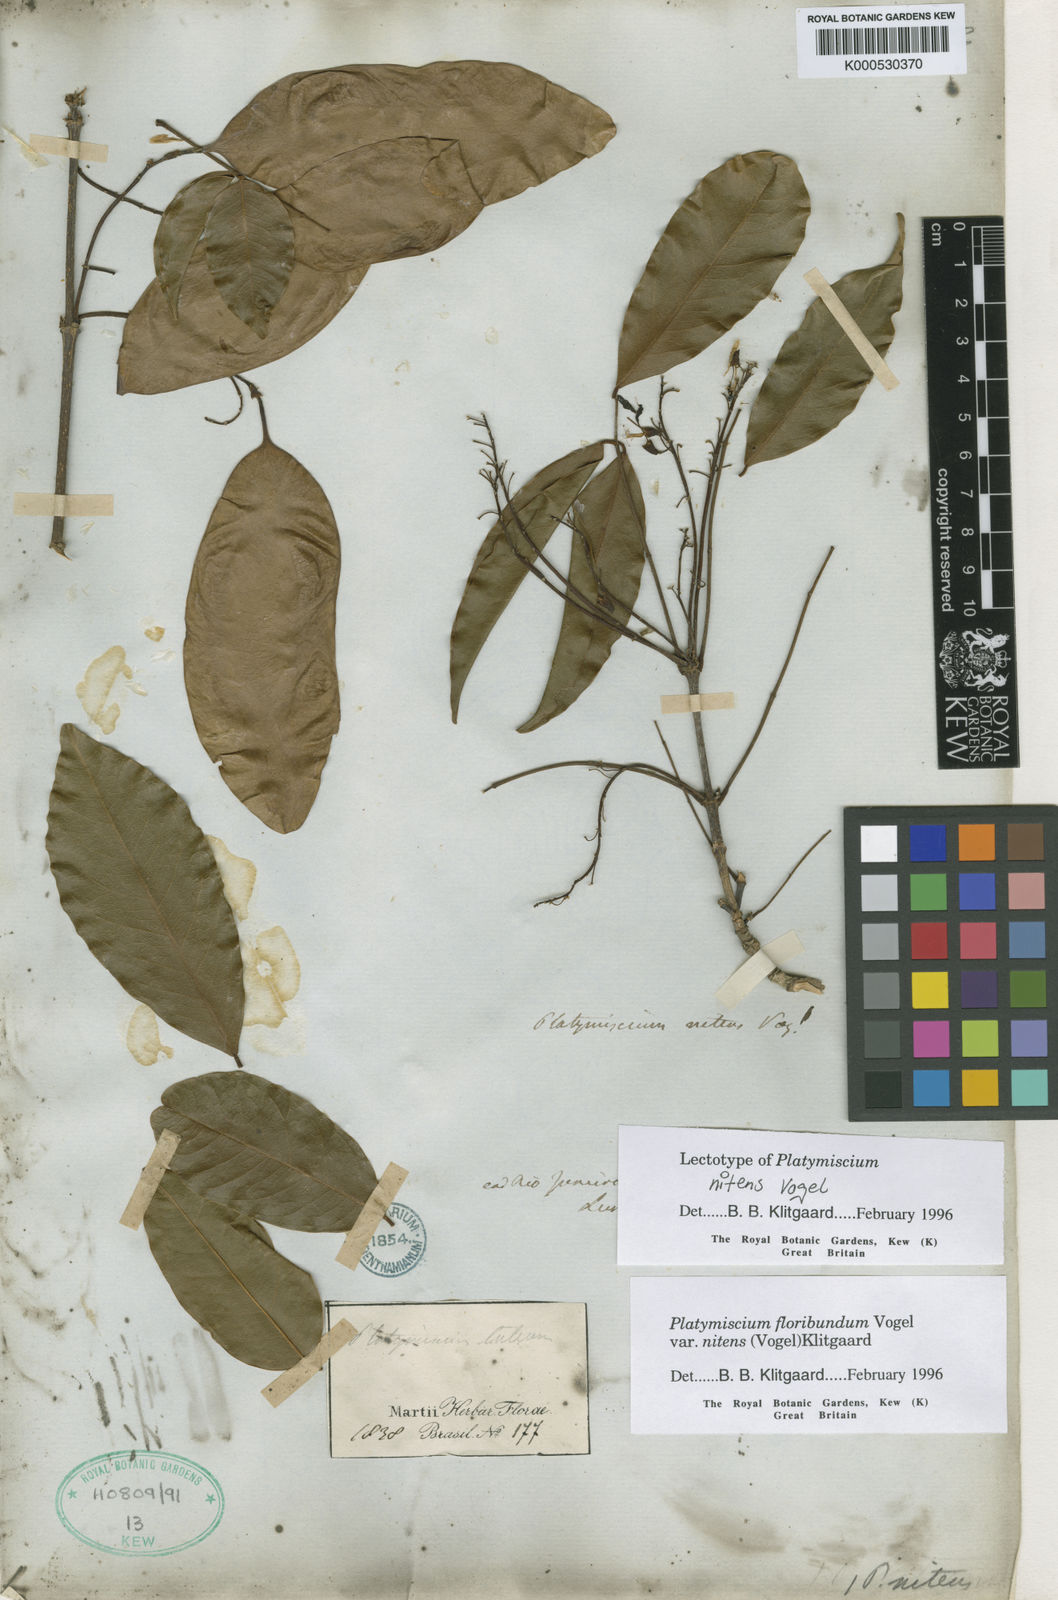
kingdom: Plantae
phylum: Tracheophyta
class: Magnoliopsida
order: Fabales
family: Fabaceae
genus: Platymiscium
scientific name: Platymiscium floribundum
